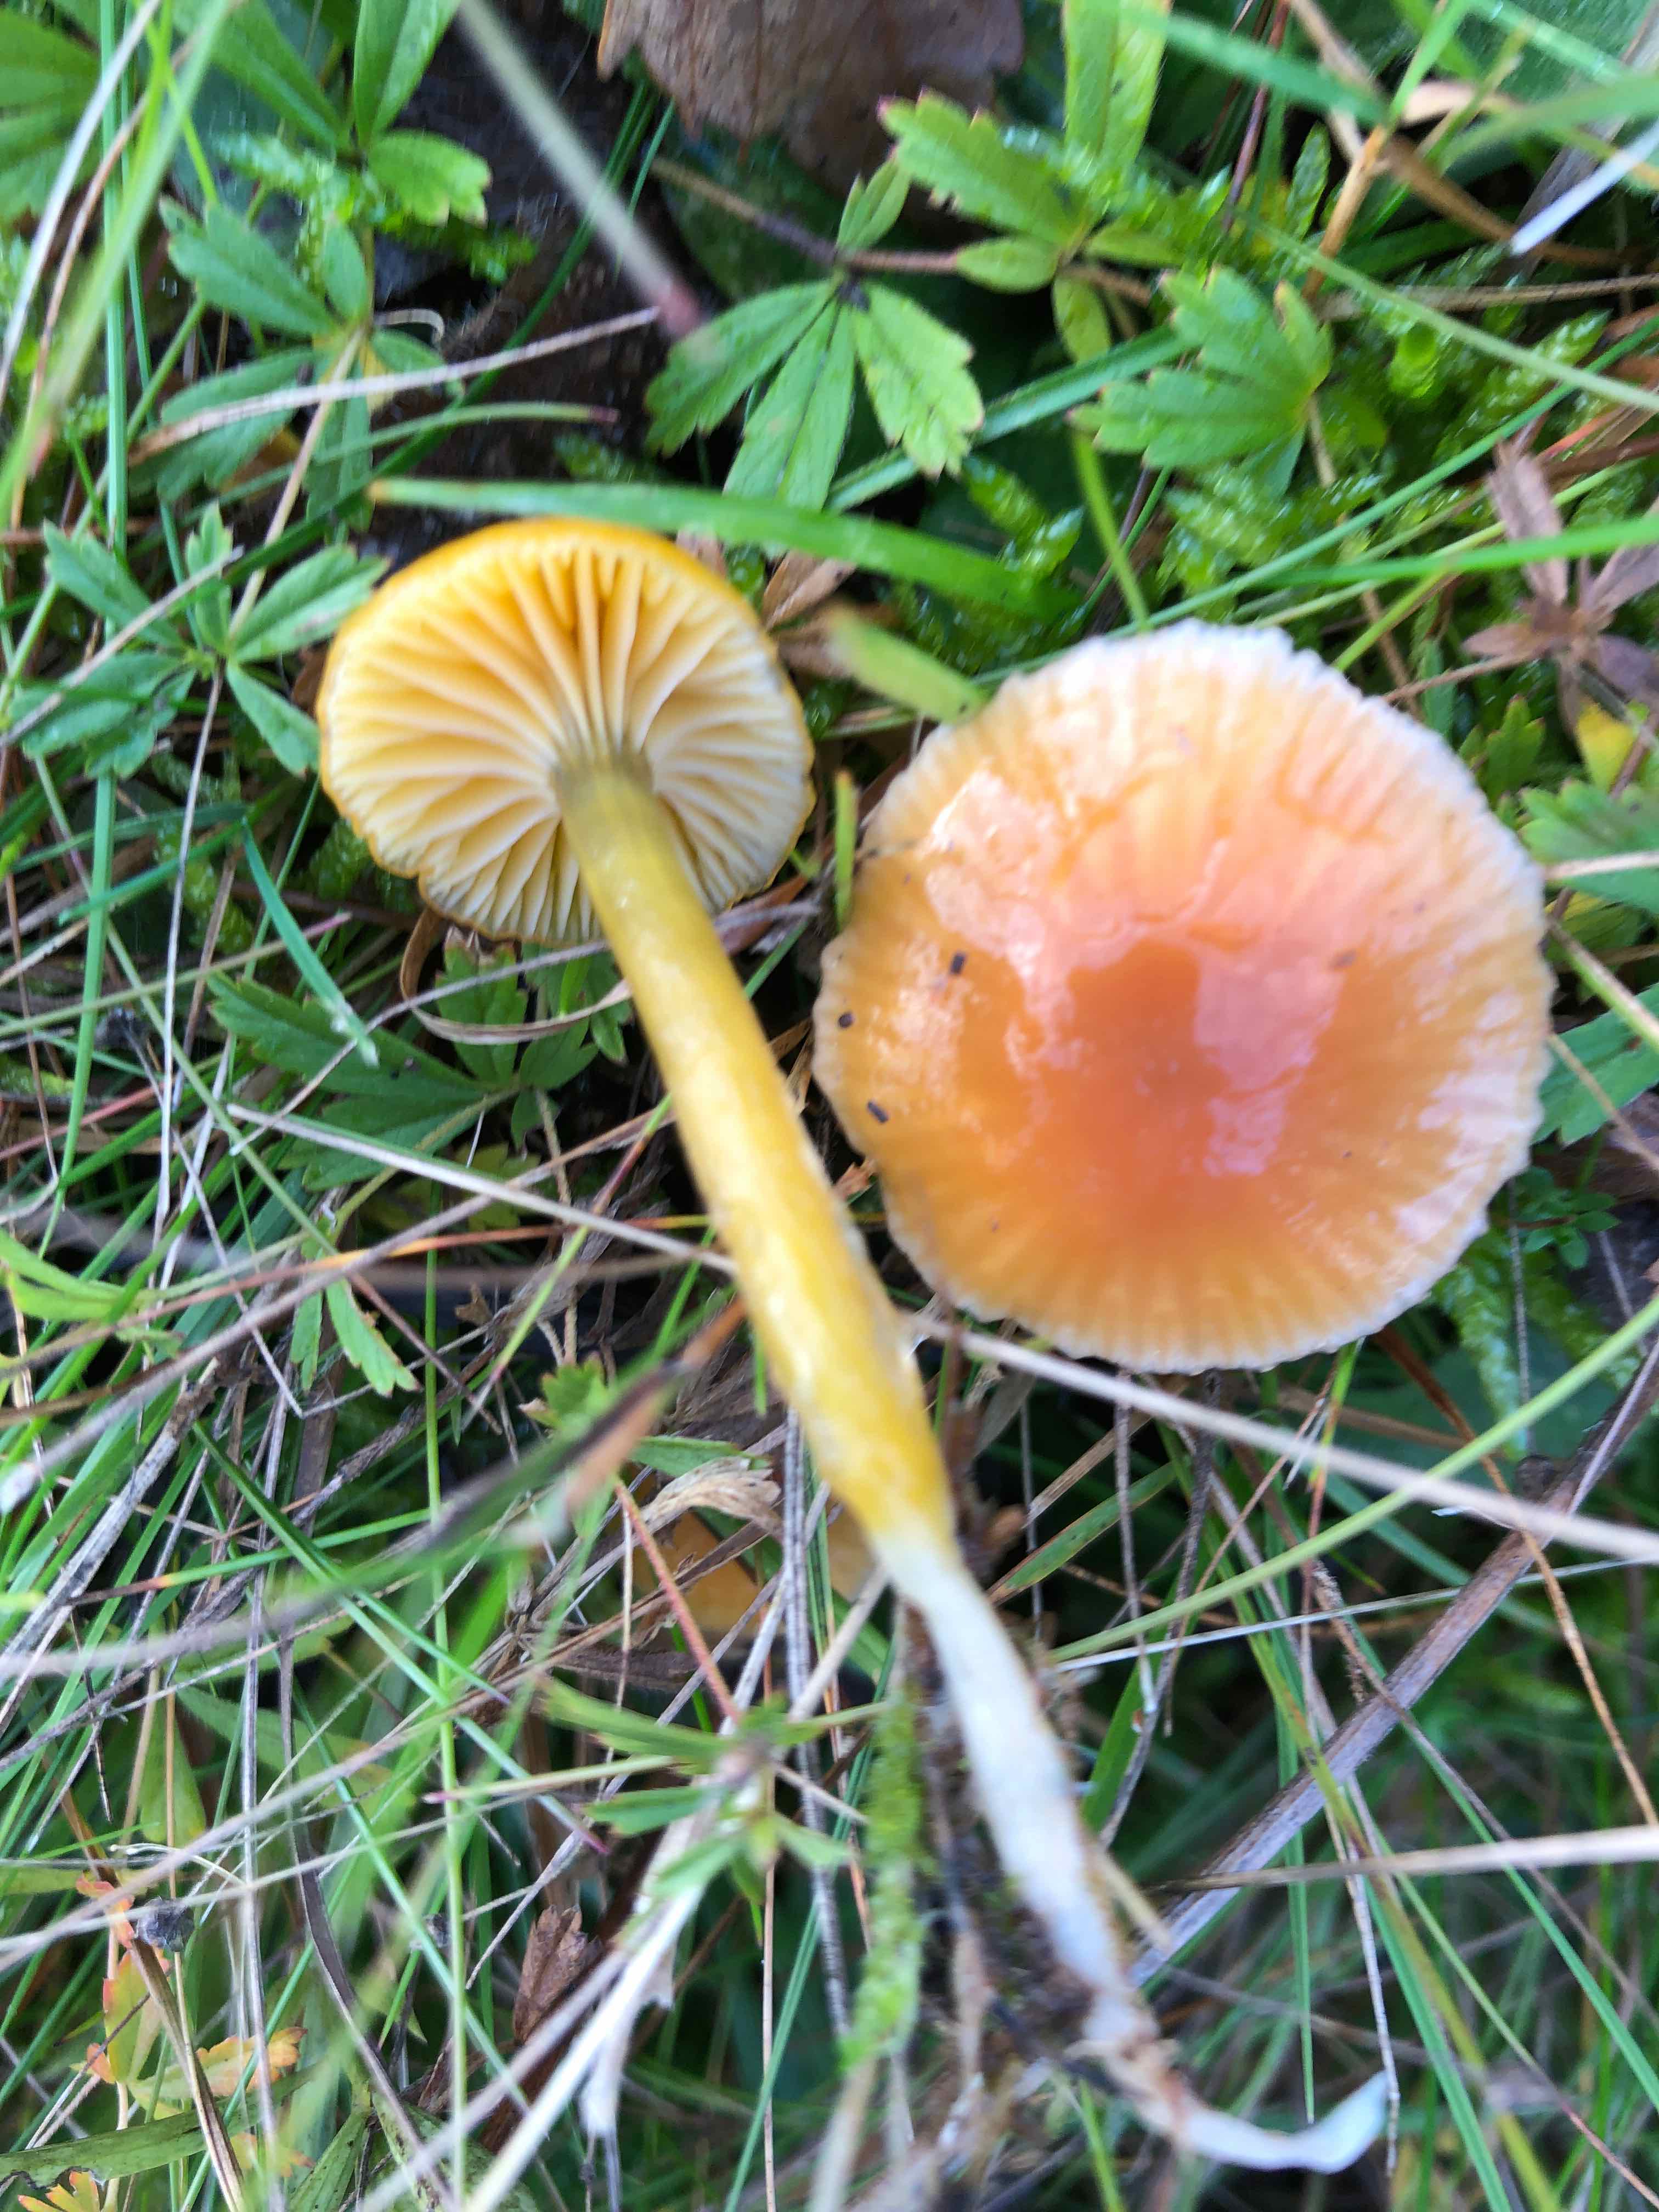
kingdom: Fungi
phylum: Basidiomycota
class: Agaricomycetes
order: Agaricales
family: Hygrophoraceae
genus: Gliophorus
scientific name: Gliophorus laetus
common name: brusk-vokshat
